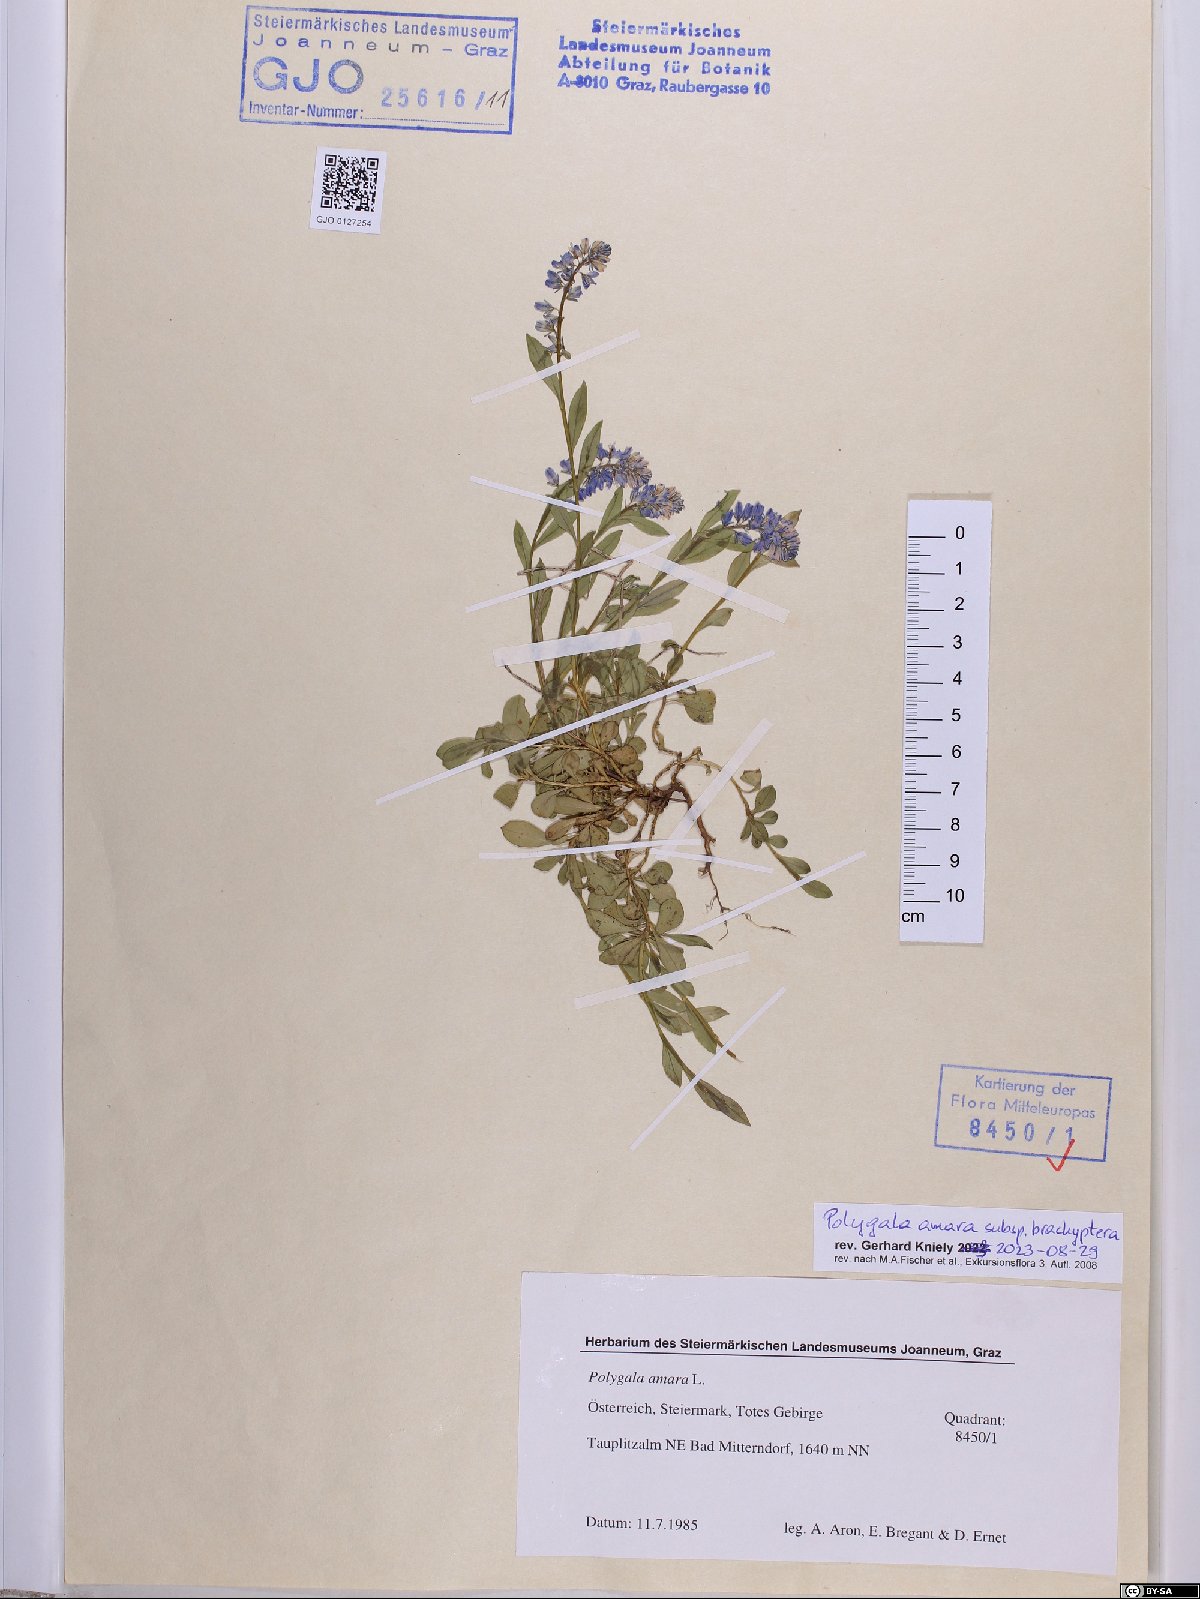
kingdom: Plantae
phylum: Tracheophyta
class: Magnoliopsida
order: Fabales
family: Polygalaceae
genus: Polygala
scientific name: Polygala amara
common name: Milkwort
